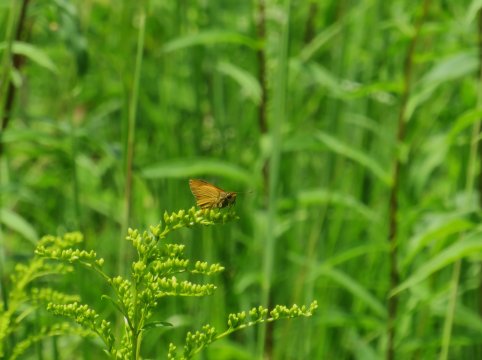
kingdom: Animalia
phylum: Arthropoda
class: Insecta
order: Lepidoptera
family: Hesperiidae
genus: Atrytone
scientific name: Atrytone delaware
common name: Delaware Skipper
